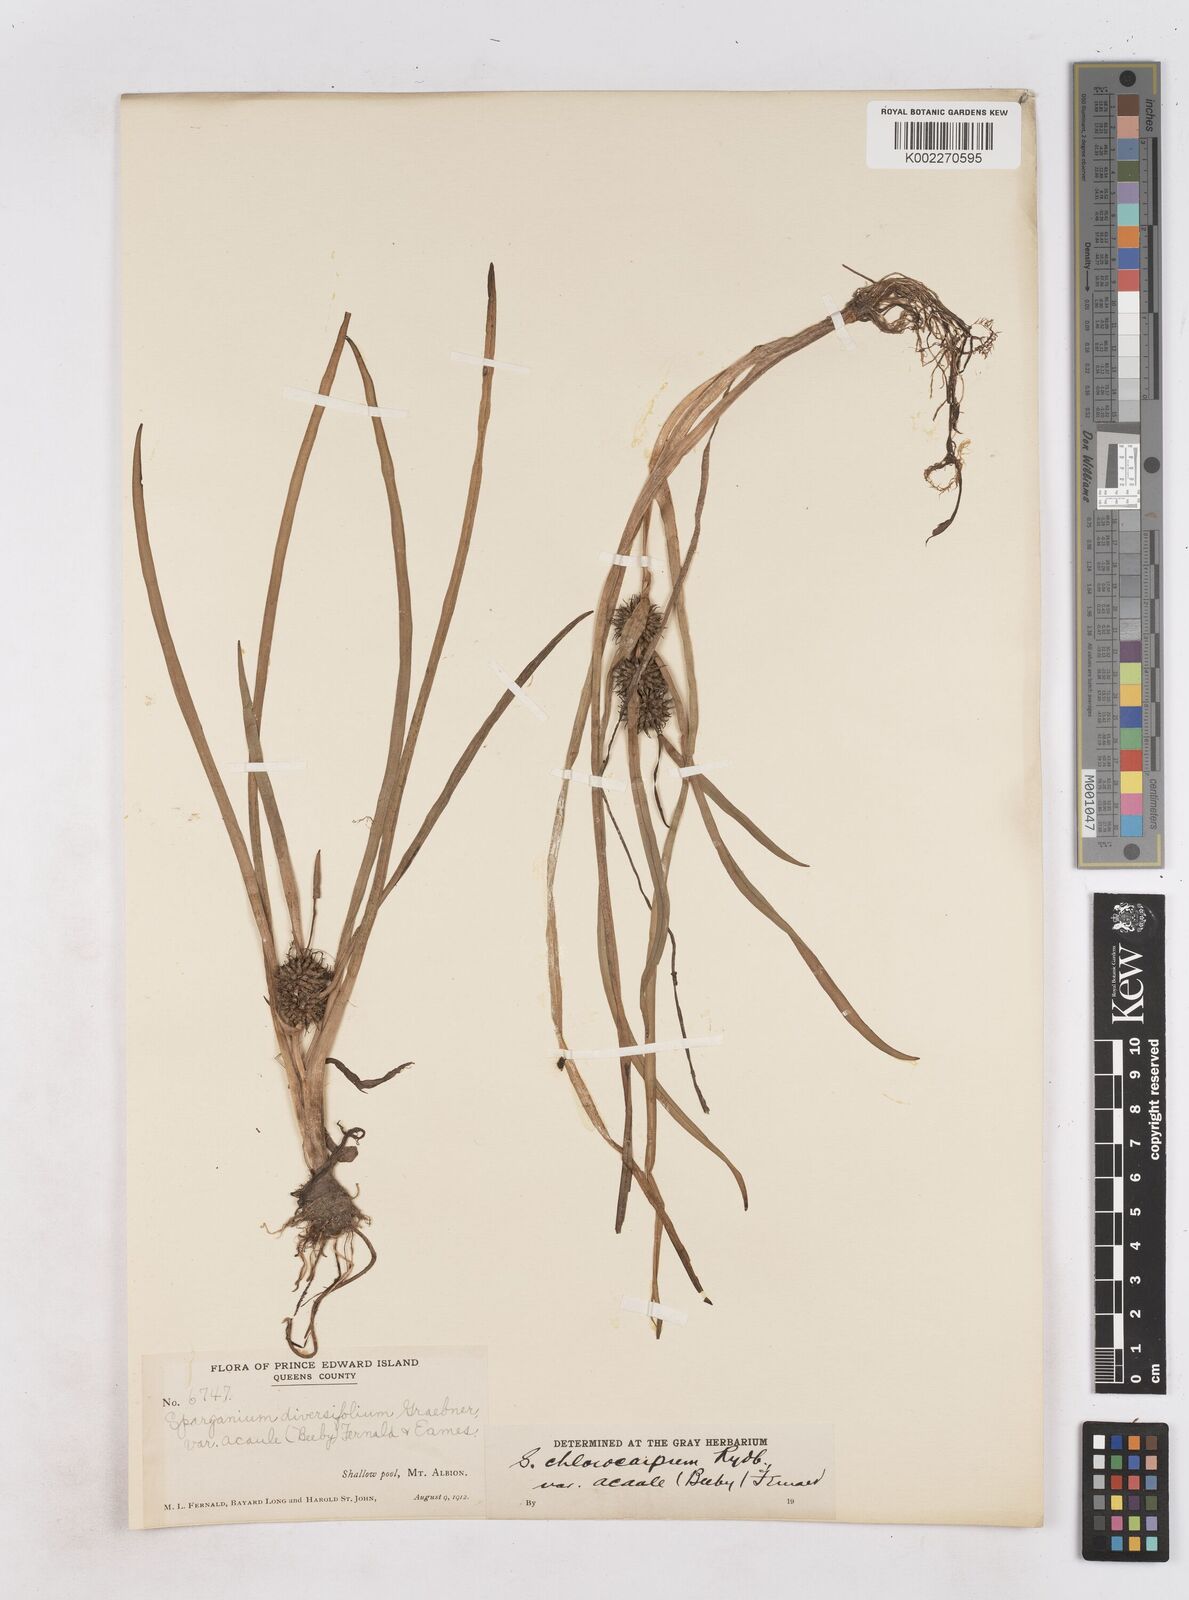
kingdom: Plantae
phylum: Tracheophyta
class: Liliopsida
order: Poales
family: Typhaceae
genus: Sparganium
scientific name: Sparganium emersum
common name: Unbranched bur-reed
